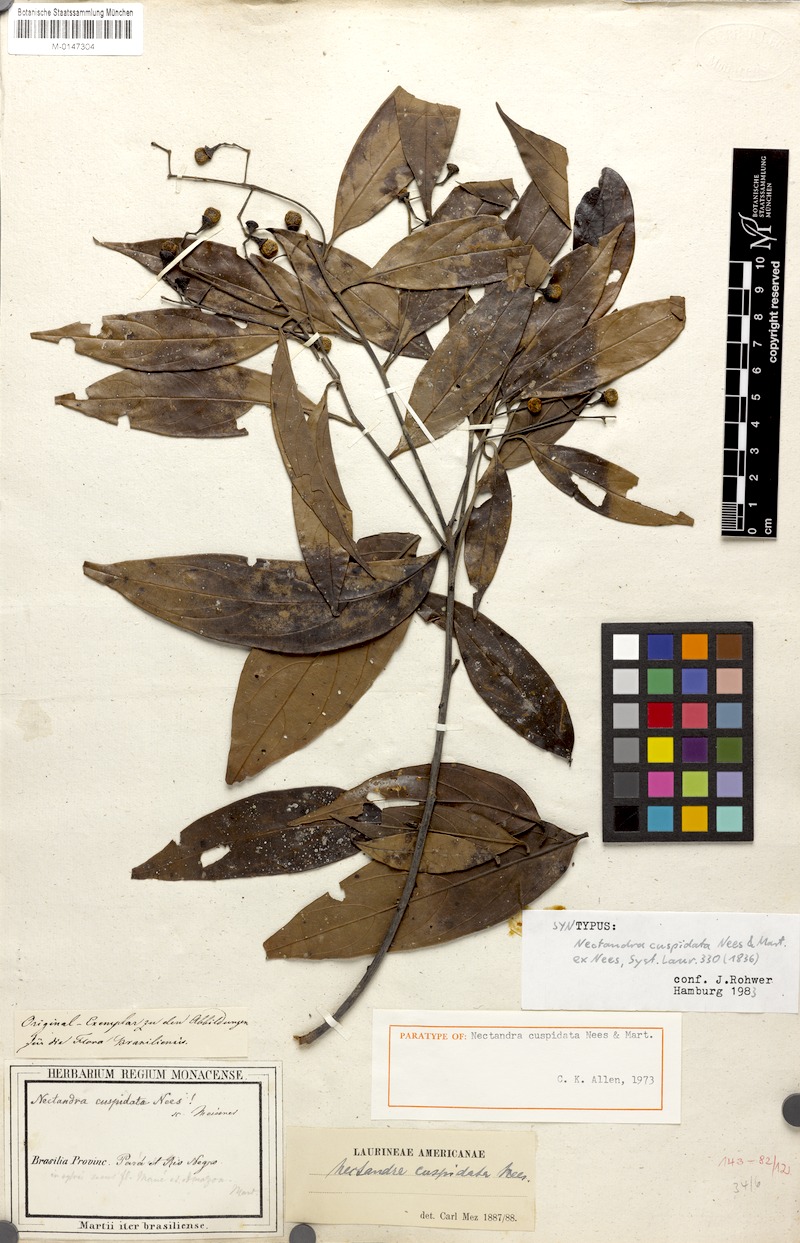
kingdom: Plantae
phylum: Tracheophyta
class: Magnoliopsida
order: Laurales
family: Lauraceae
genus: Nectandra
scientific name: Nectandra cuspidata
